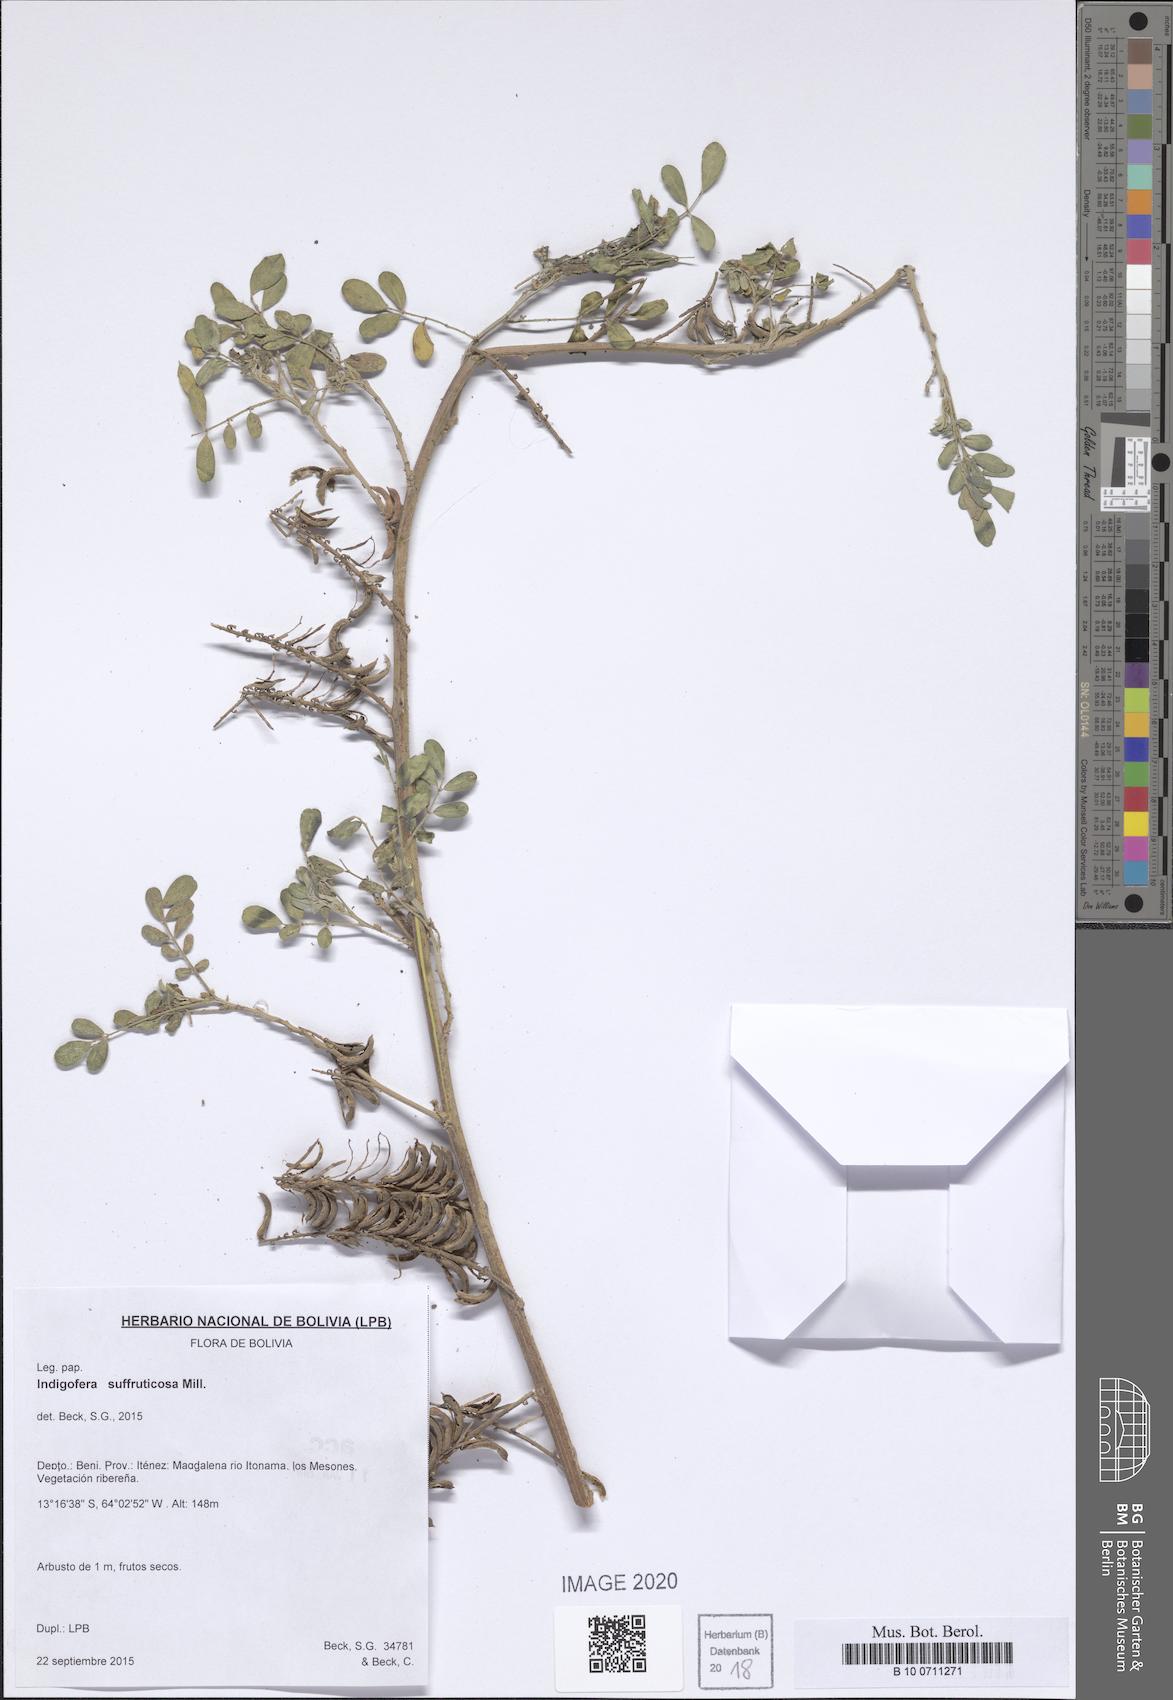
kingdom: Plantae
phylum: Tracheophyta
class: Magnoliopsida
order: Fabales
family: Fabaceae
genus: Indigofera
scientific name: Indigofera suffruticosa
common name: Anil de pasto
